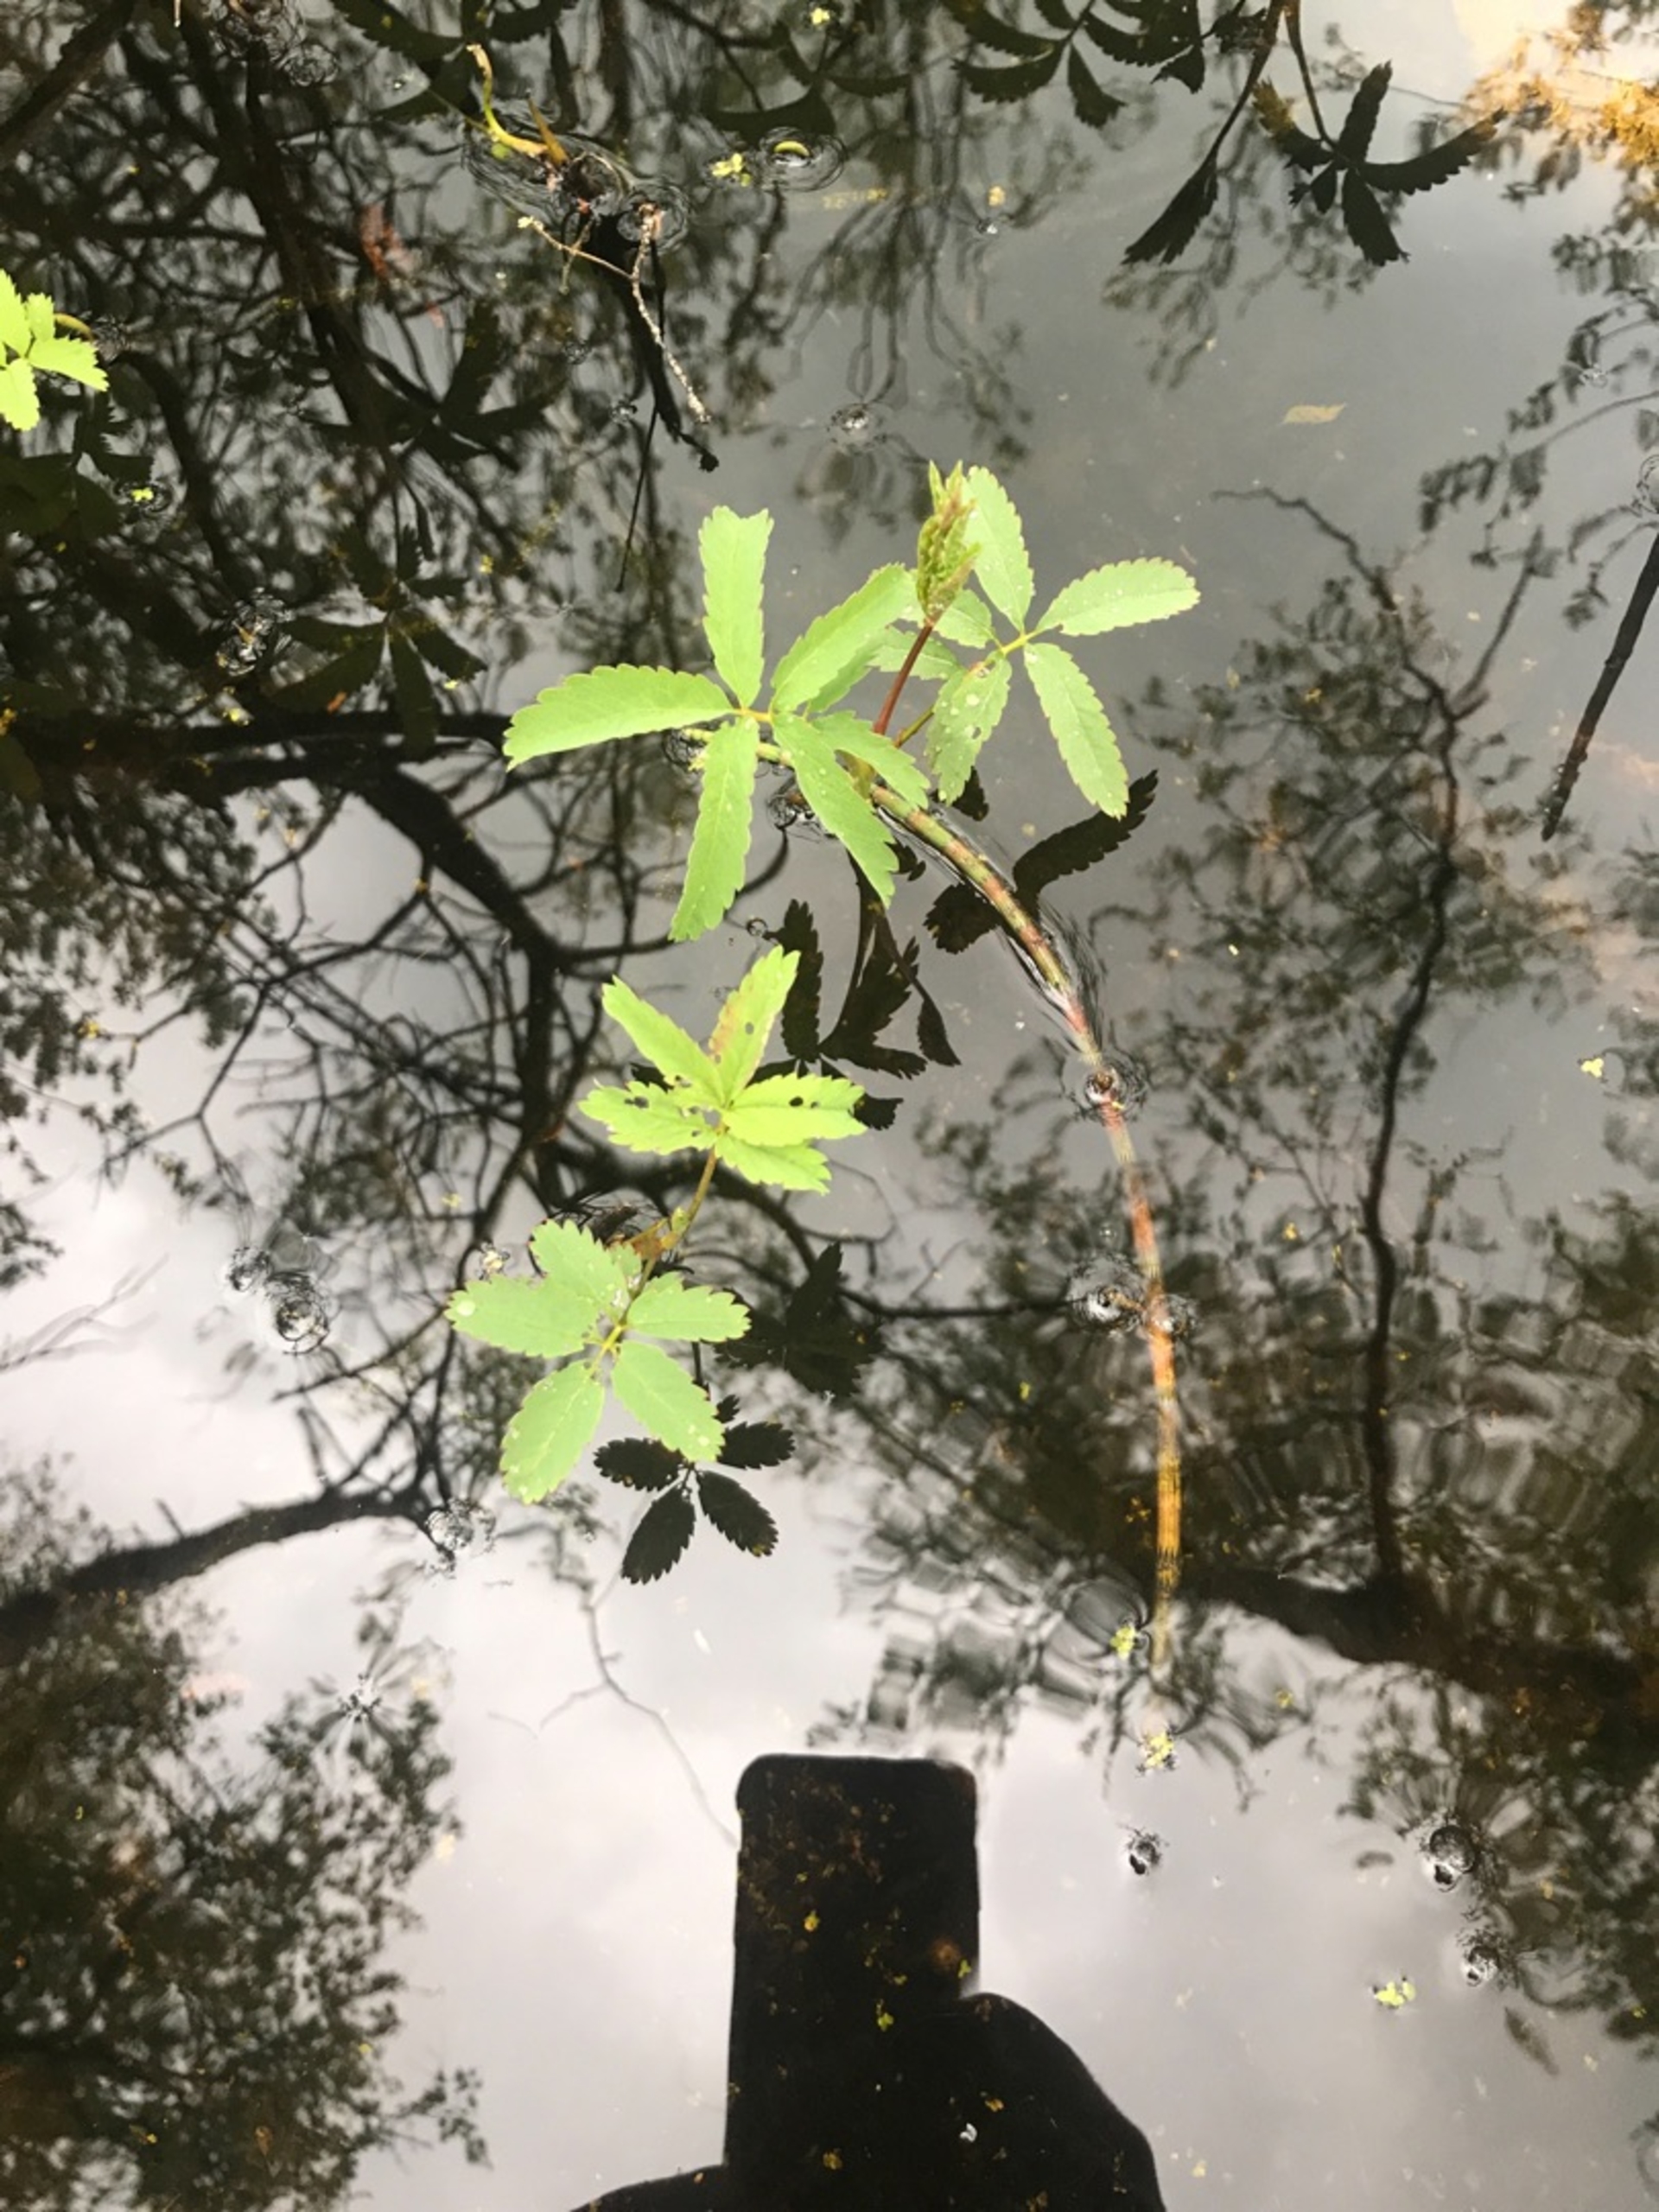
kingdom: Plantae
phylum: Tracheophyta
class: Magnoliopsida
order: Rosales
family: Rosaceae
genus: Comarum
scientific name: Comarum palustre
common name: Kragefod
